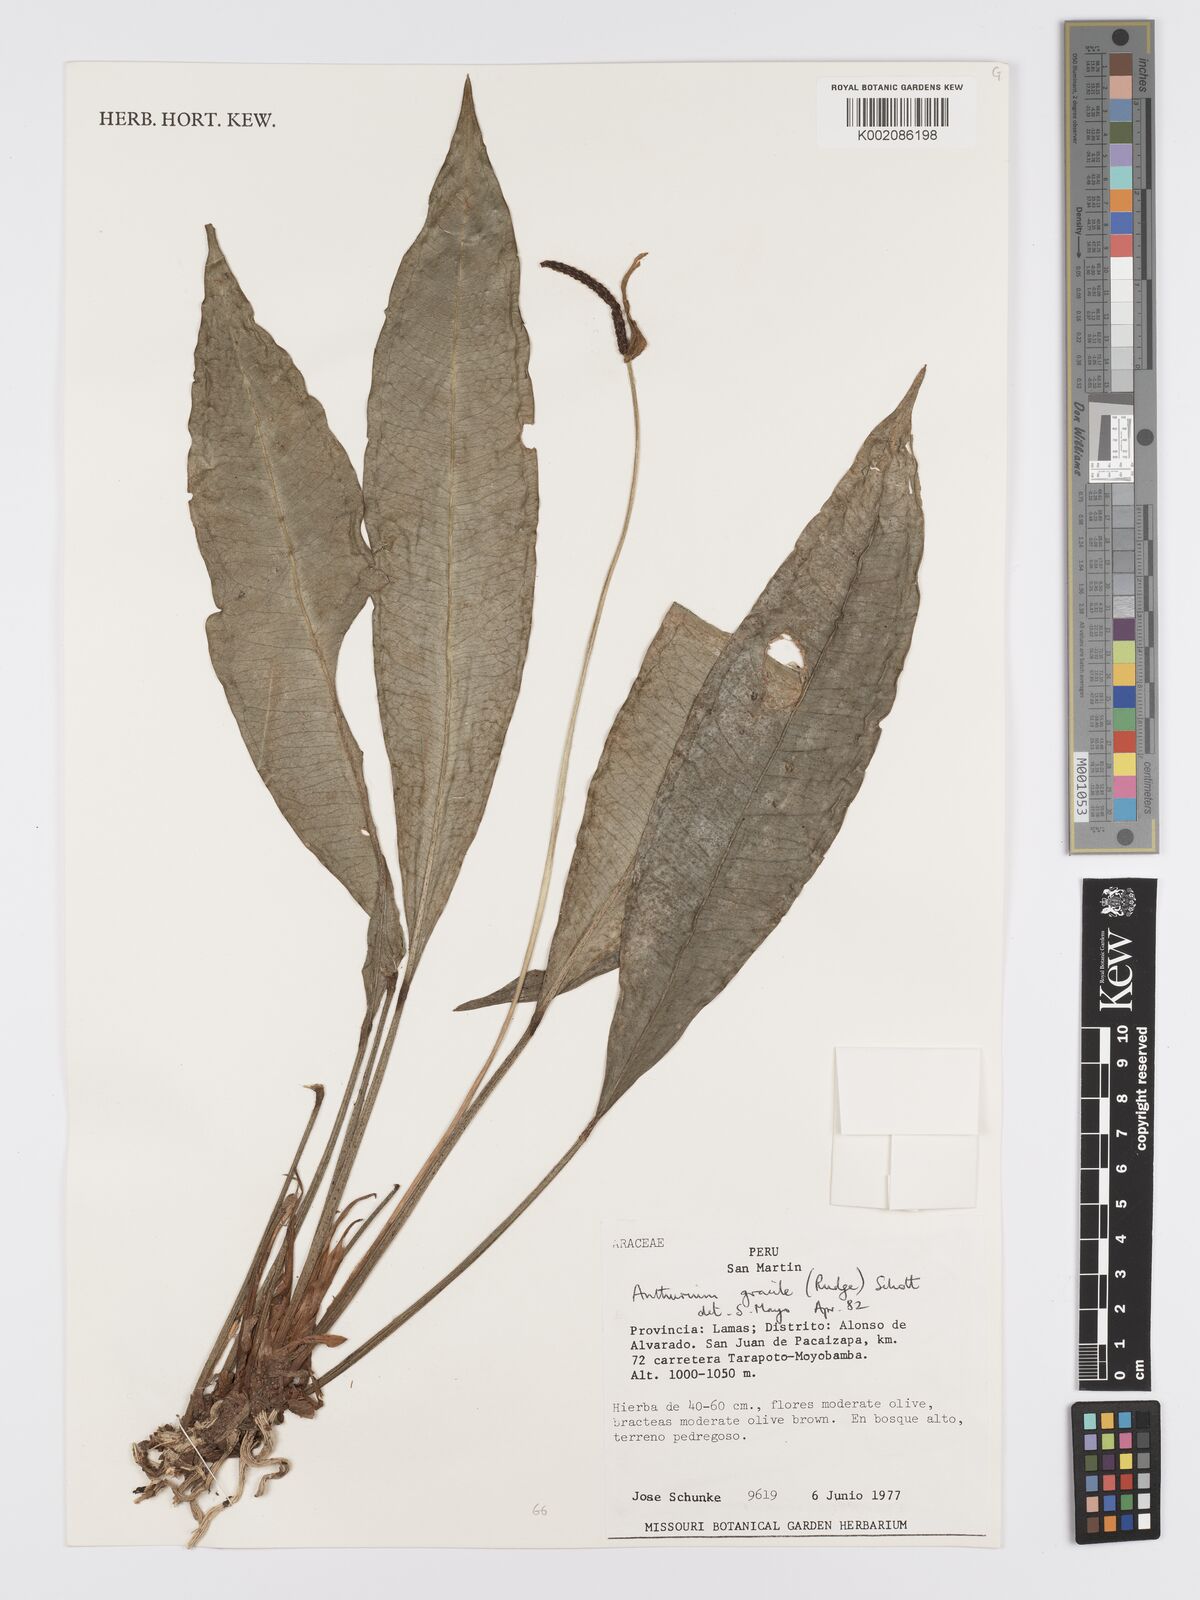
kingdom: Plantae
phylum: Tracheophyta
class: Liliopsida
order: Alismatales
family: Araceae
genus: Anthurium
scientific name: Anthurium gracile
